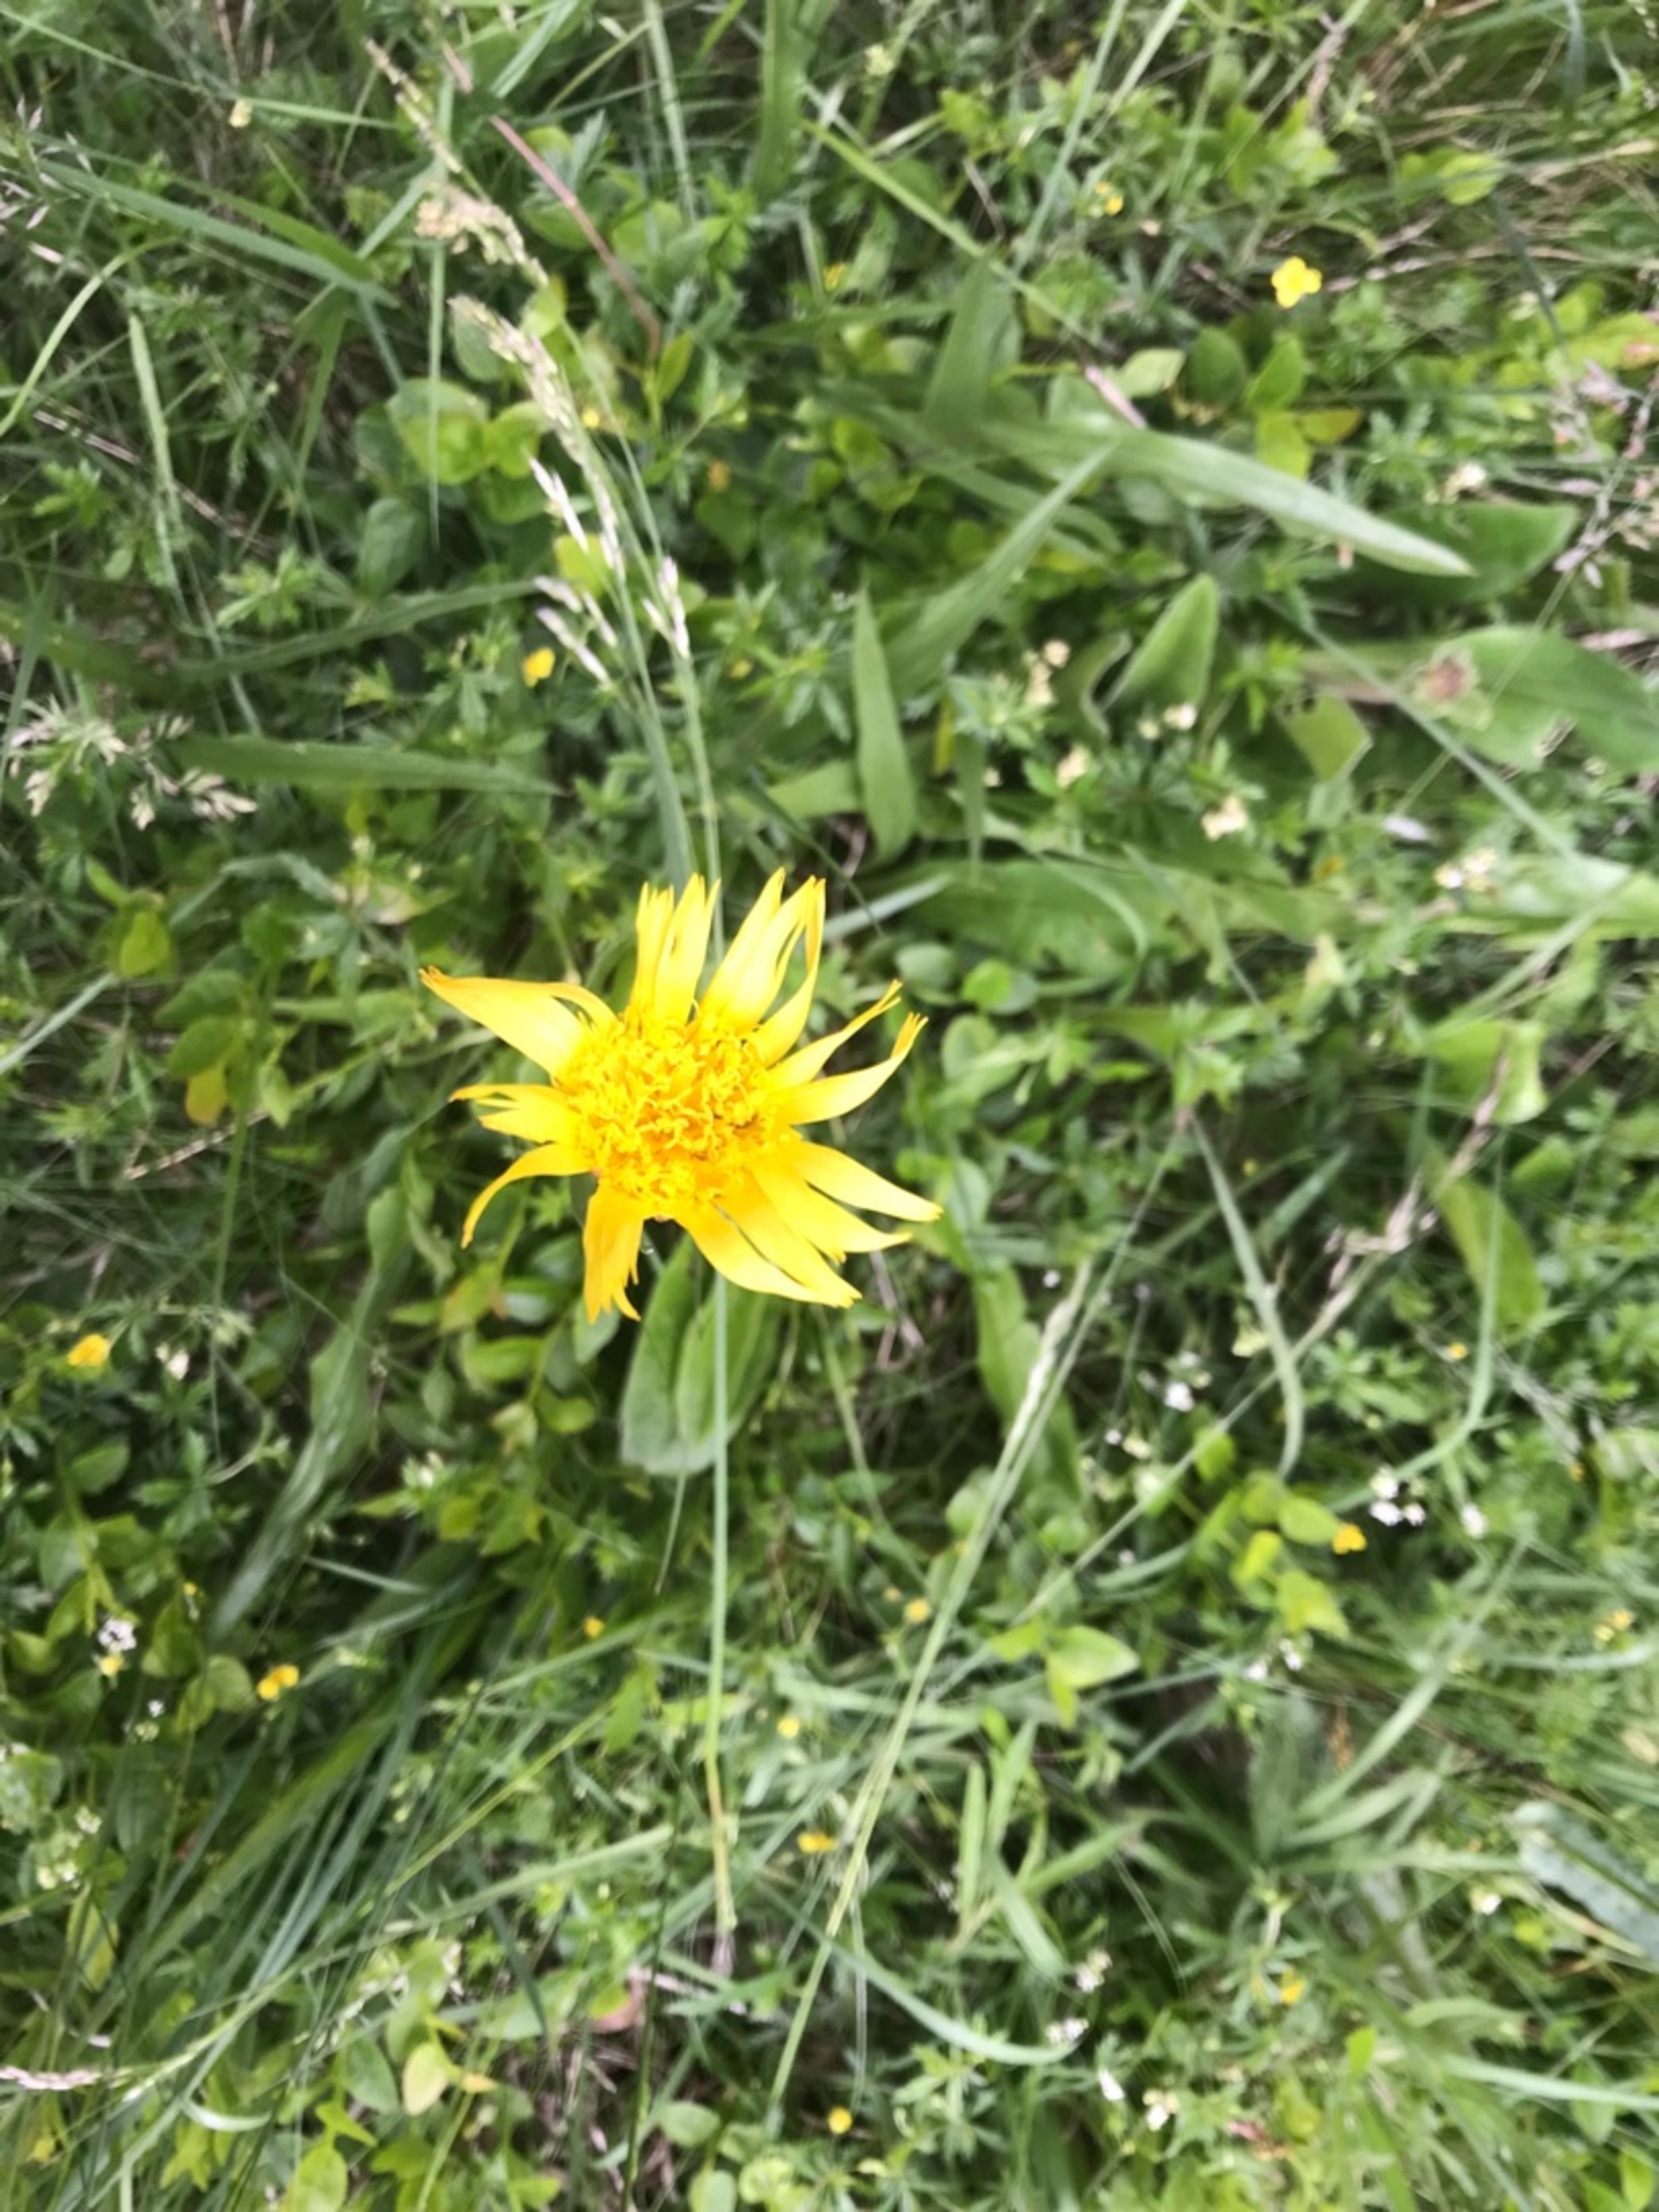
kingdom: Plantae
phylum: Tracheophyta
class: Magnoliopsida
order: Asterales
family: Asteraceae
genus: Scorzonera
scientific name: Scorzonera humilis
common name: Lav skorsoner
